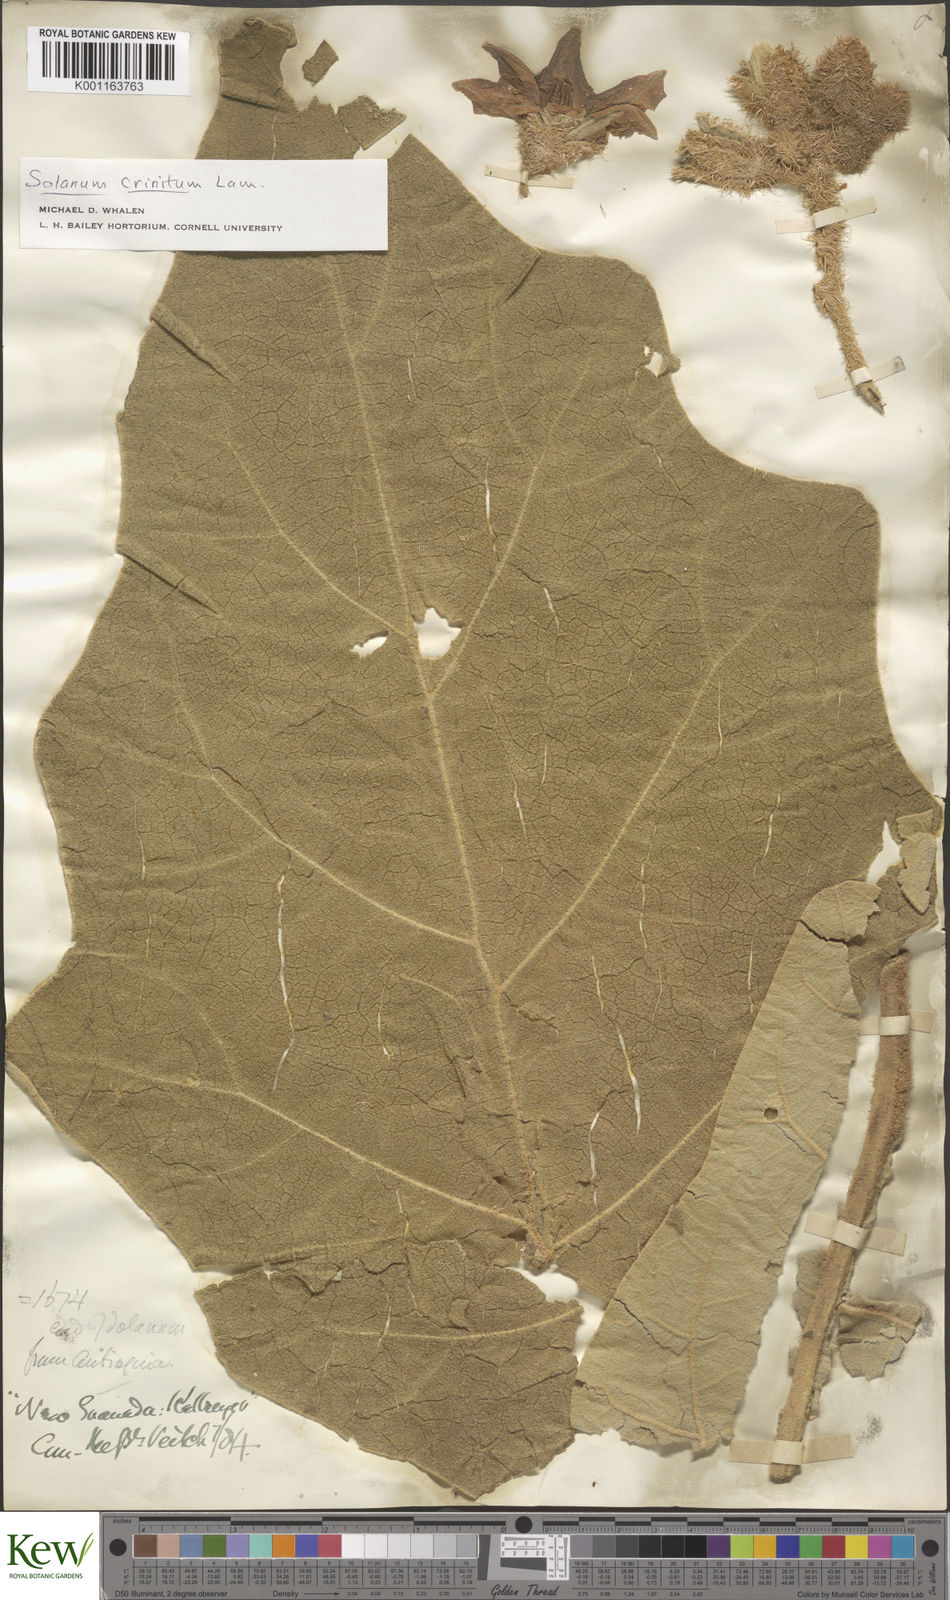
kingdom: Plantae
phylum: Tracheophyta
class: Magnoliopsida
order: Solanales
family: Solanaceae
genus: Solanum
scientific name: Solanum crinitum
